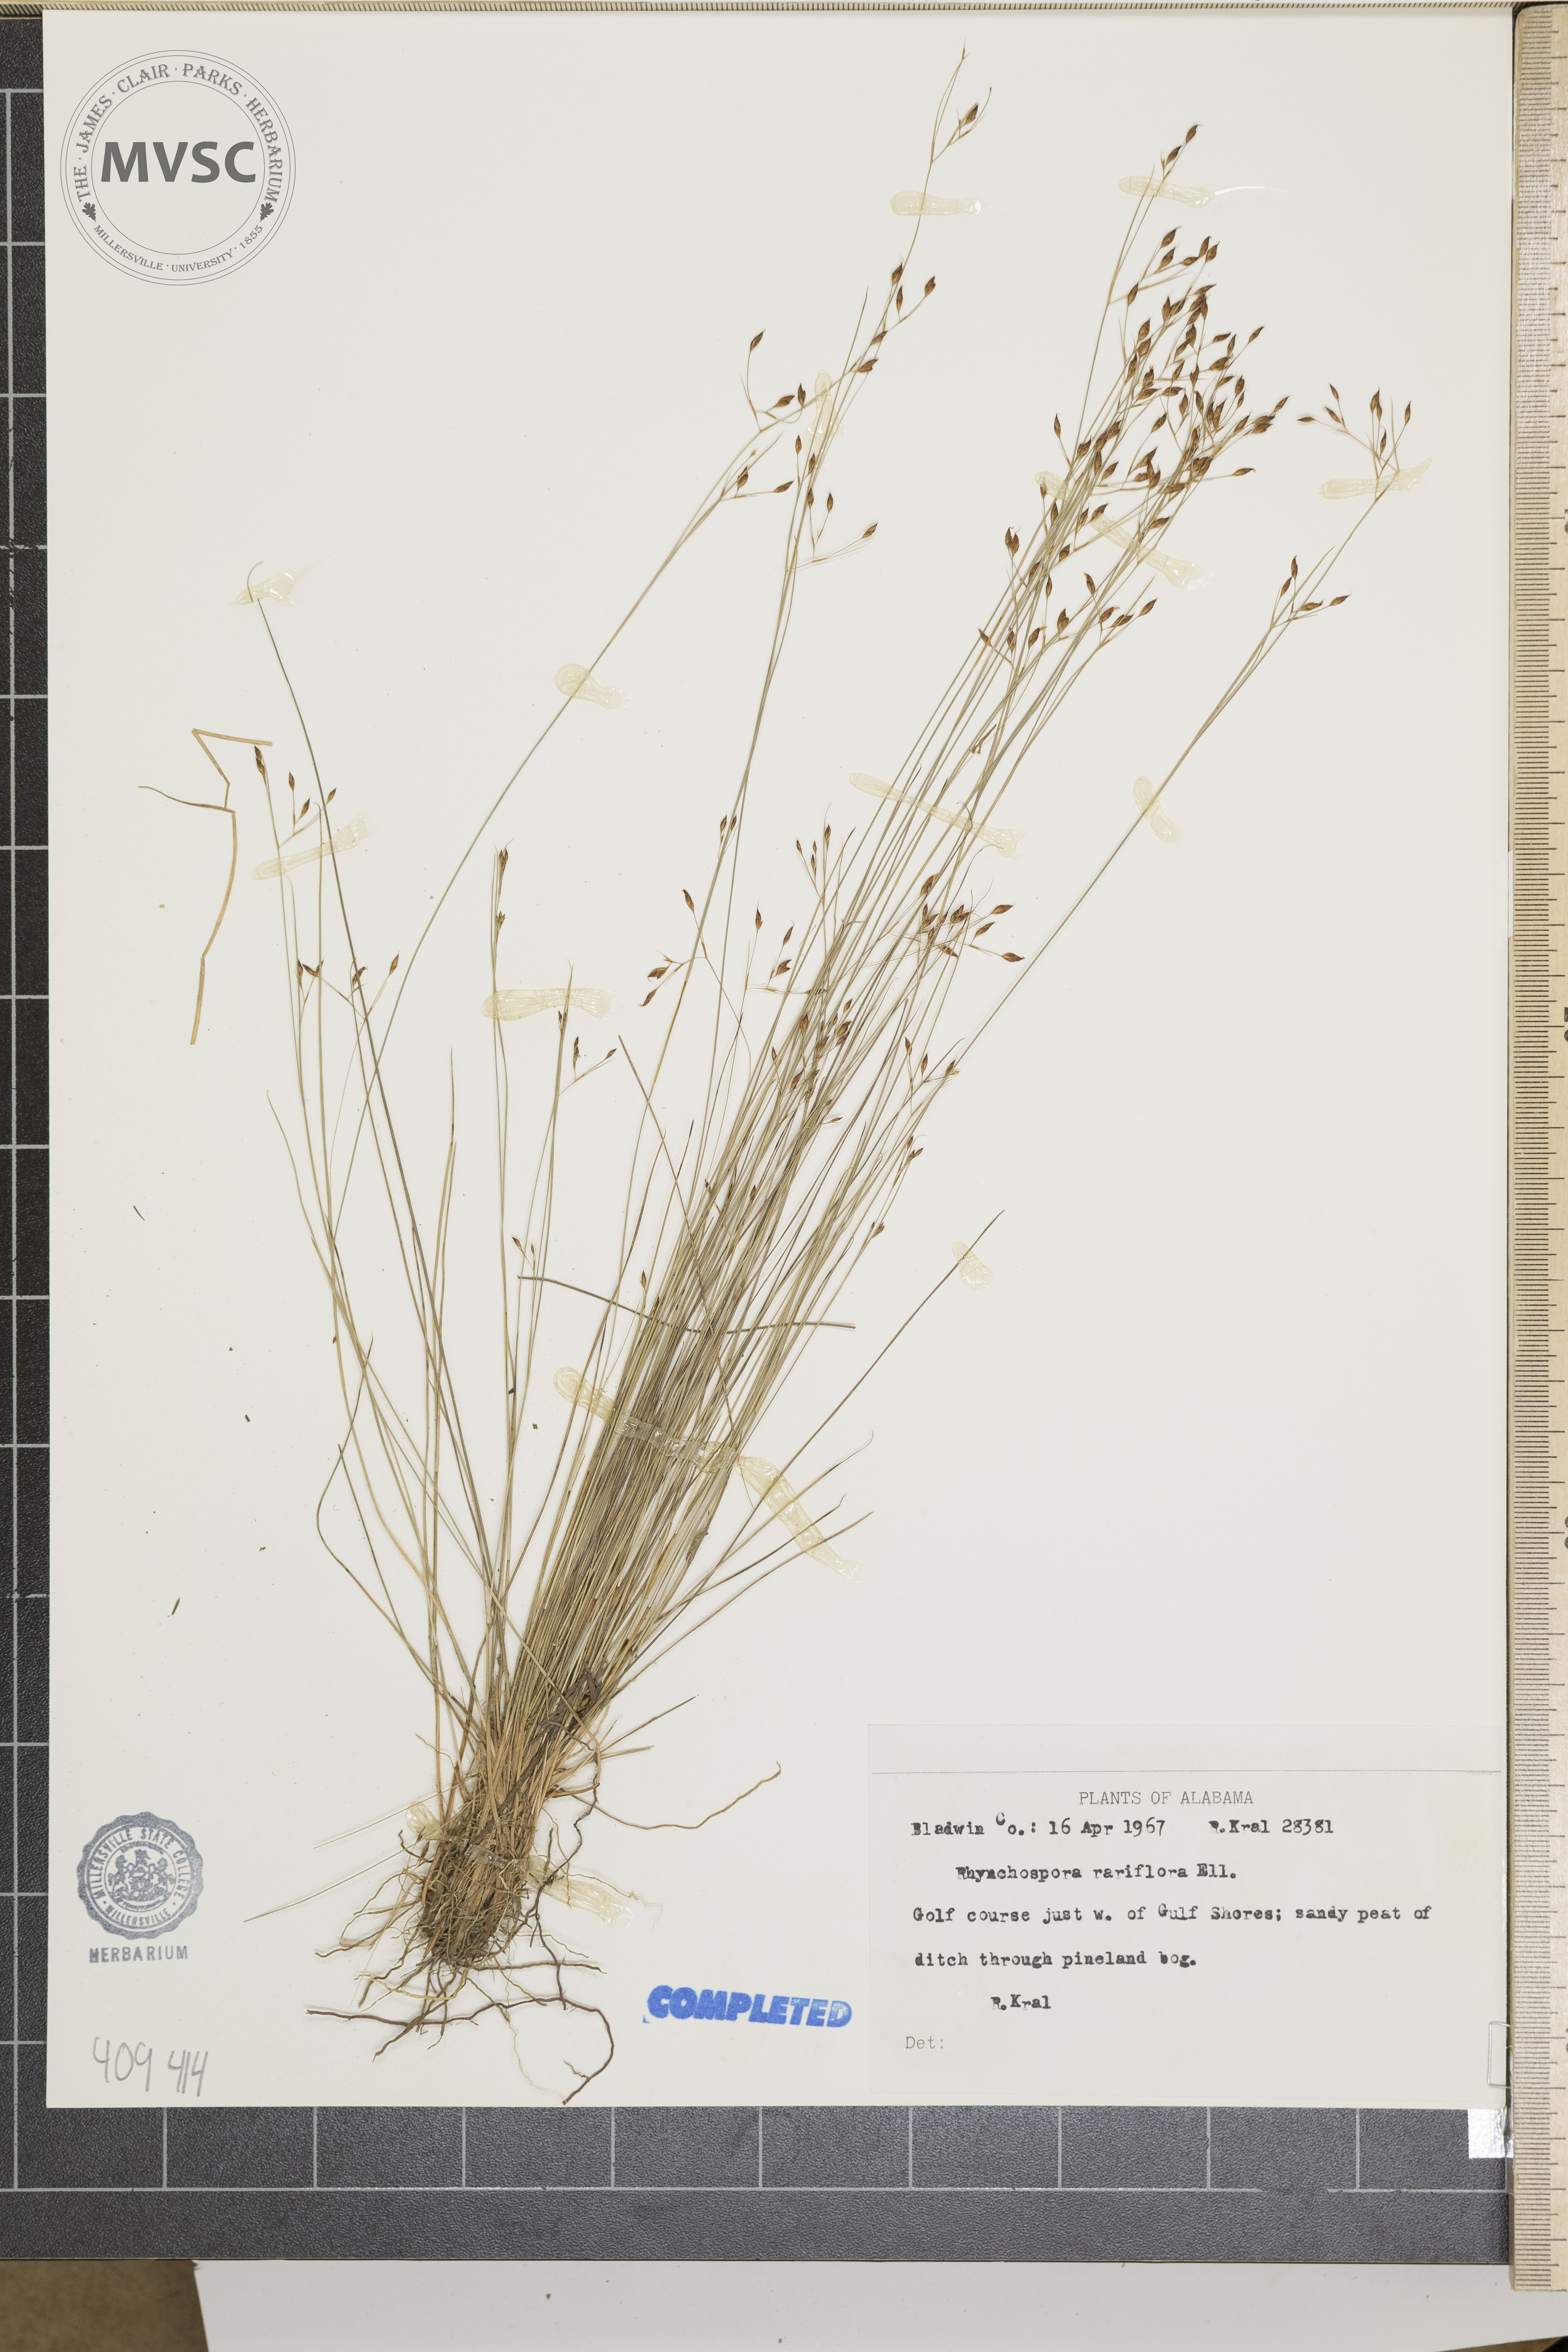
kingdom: Plantae
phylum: Tracheophyta
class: Liliopsida
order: Poales
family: Cyperaceae
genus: Rhynchospora
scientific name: Rhynchospora rariflora
